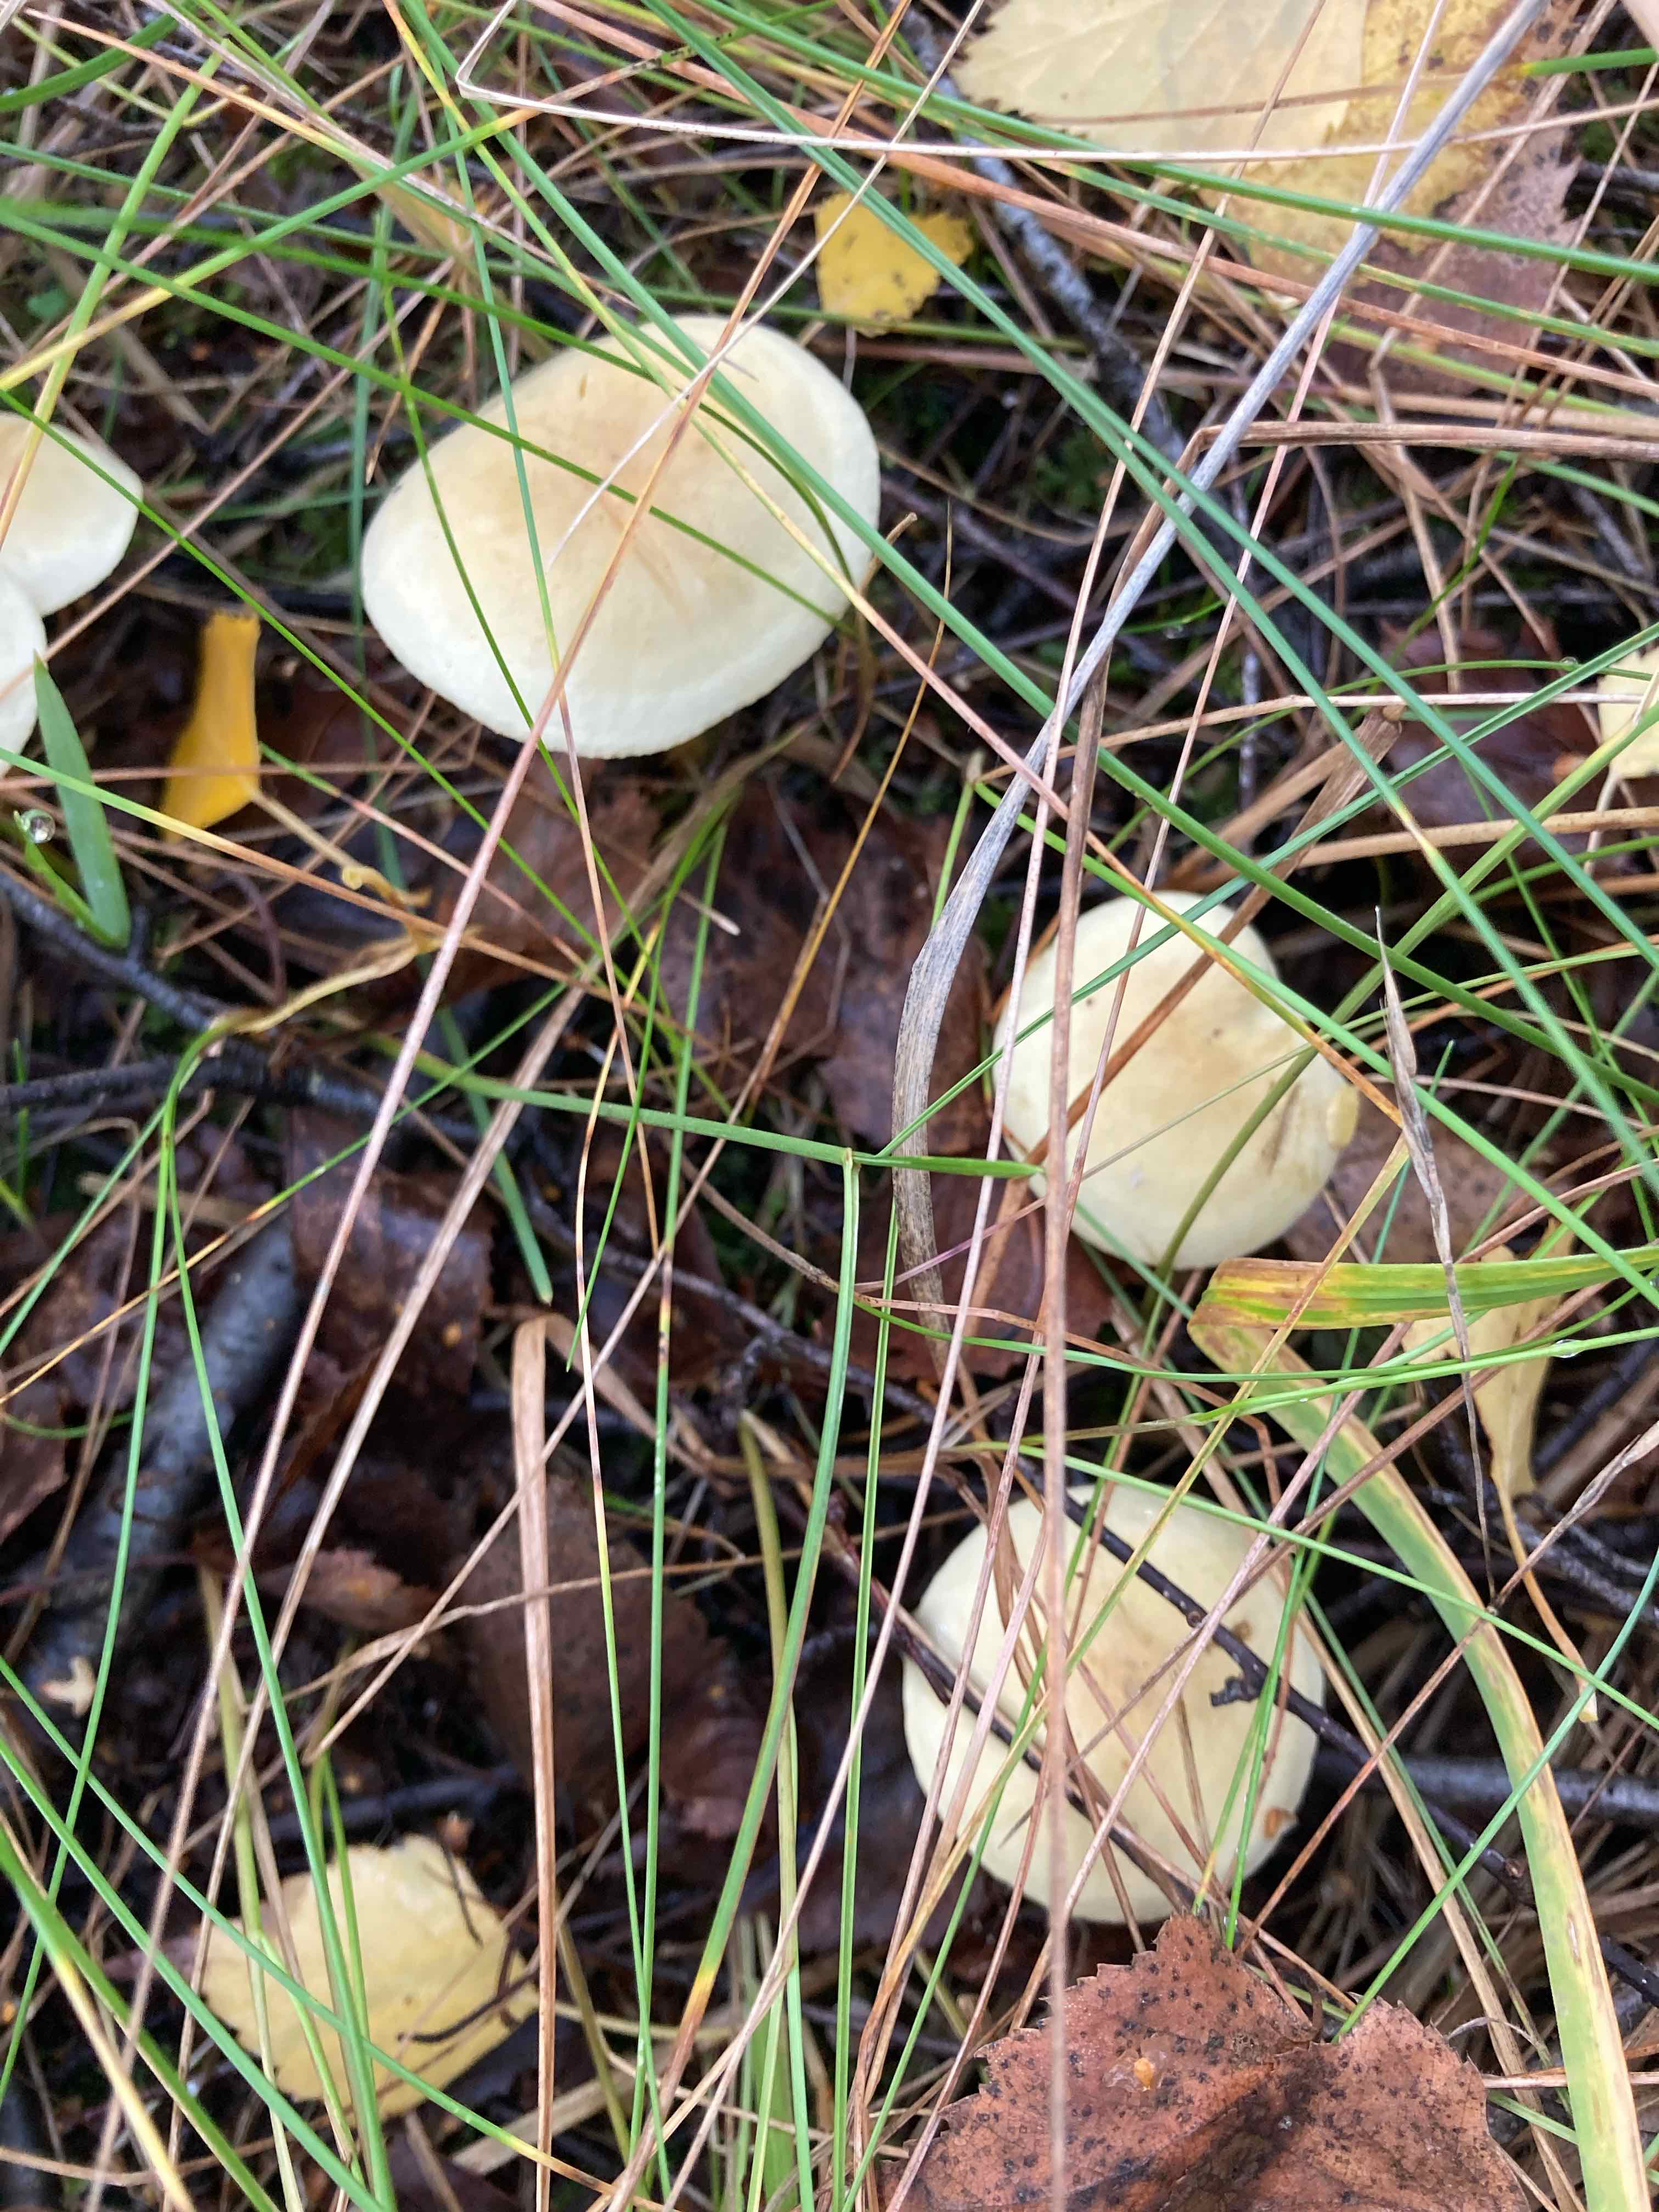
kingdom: Fungi
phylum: Basidiomycota
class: Agaricomycetes
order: Agaricales
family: Tricholomataceae
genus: Tricholoma
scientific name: Tricholoma sulphureum
